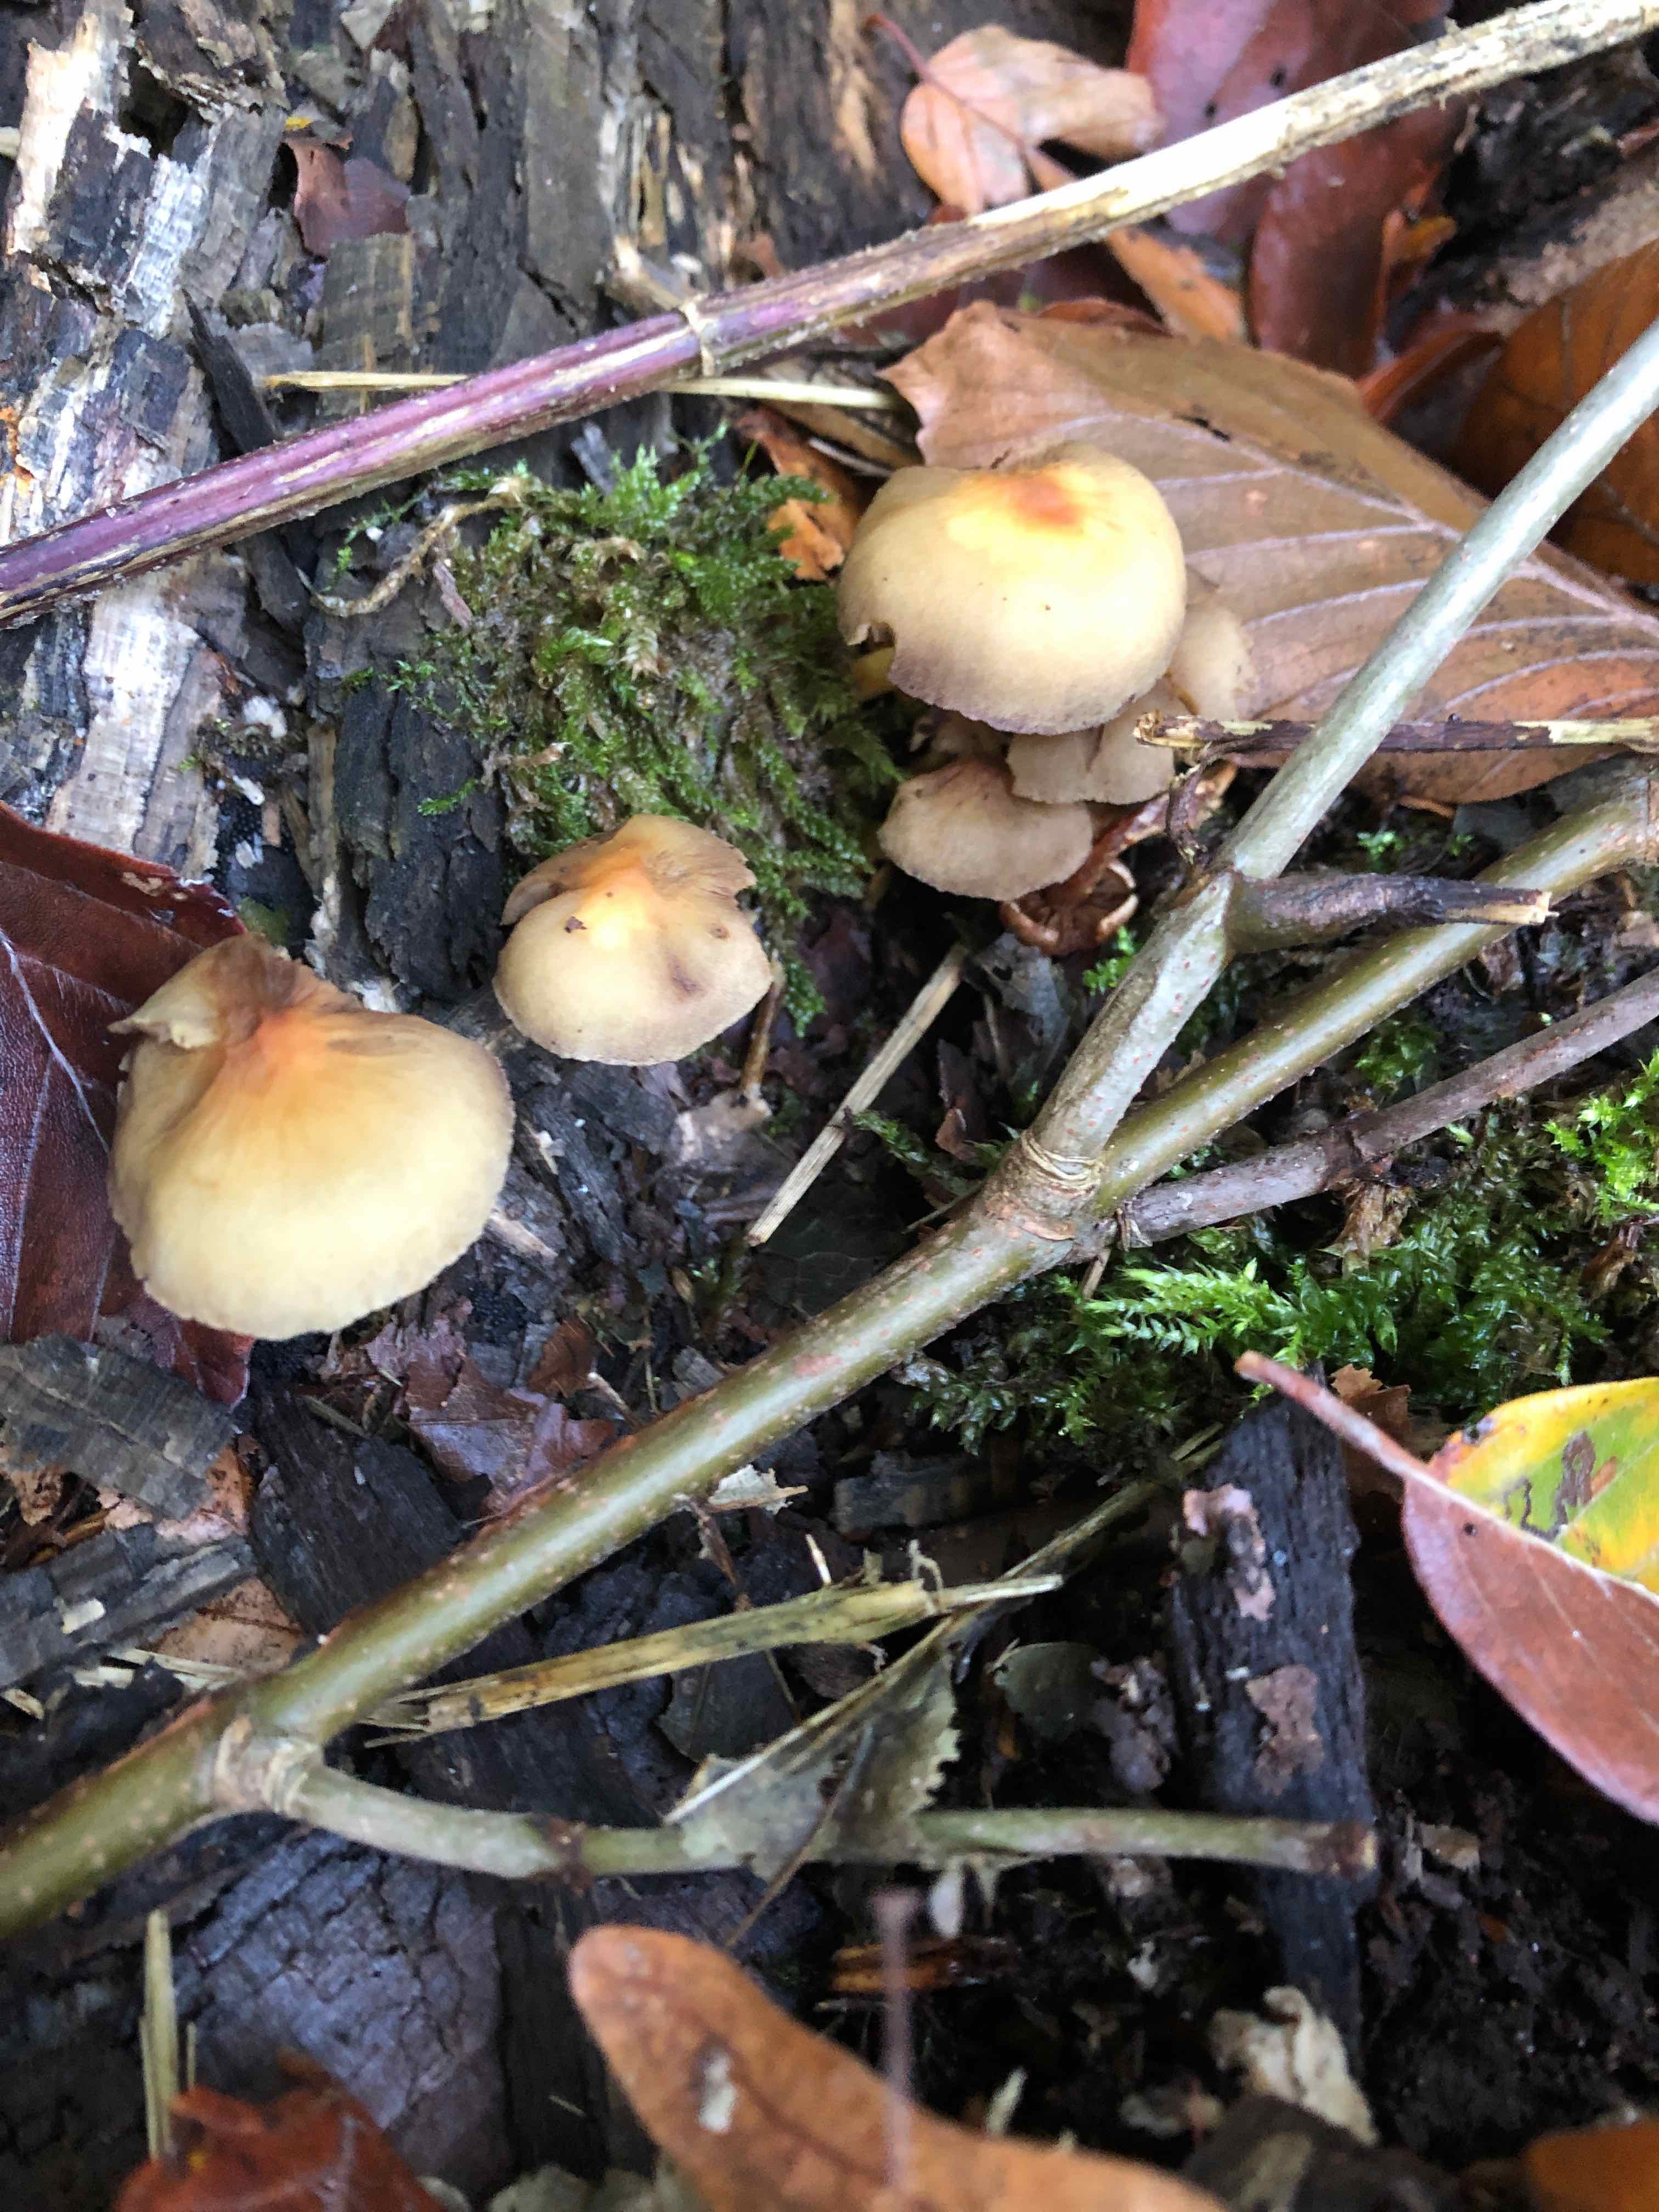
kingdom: Fungi
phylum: Basidiomycota
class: Agaricomycetes
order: Agaricales
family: Strophariaceae
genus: Hypholoma
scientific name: Hypholoma
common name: svovlhat
